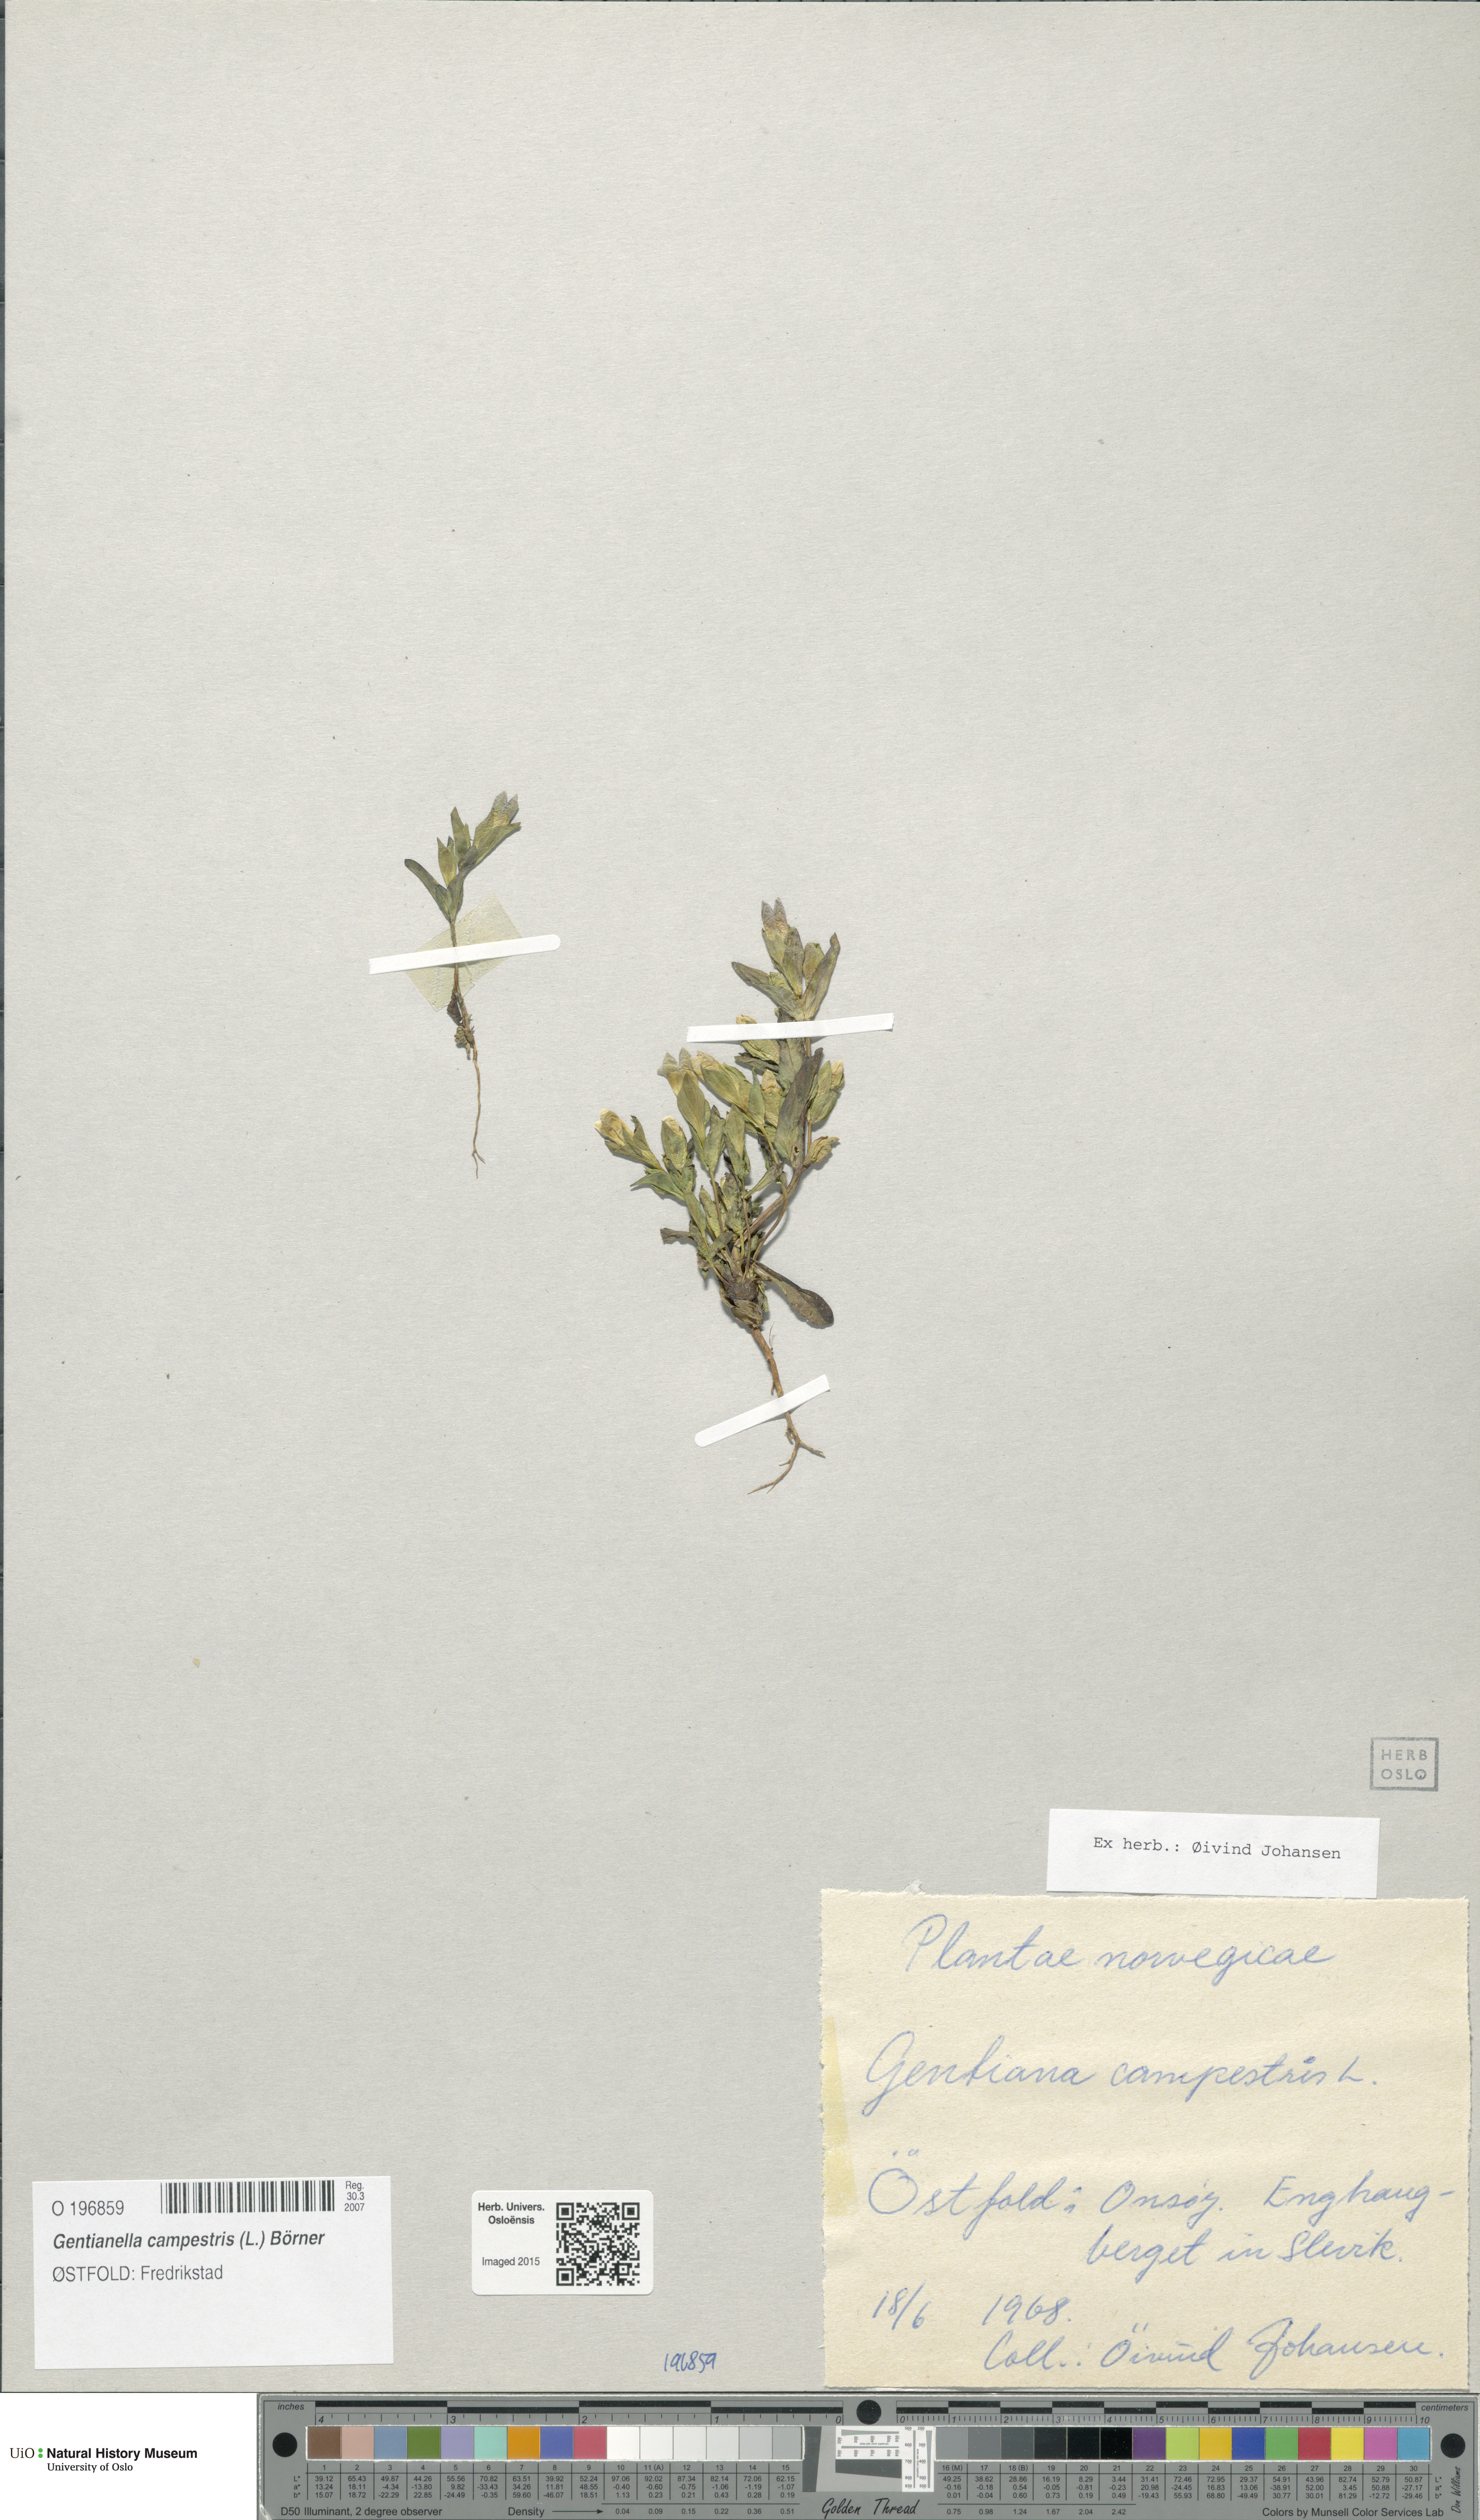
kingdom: Plantae
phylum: Tracheophyta
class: Magnoliopsida
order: Gentianales
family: Gentianaceae
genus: Gentianella
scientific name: Gentianella campestris
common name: Field gentian
